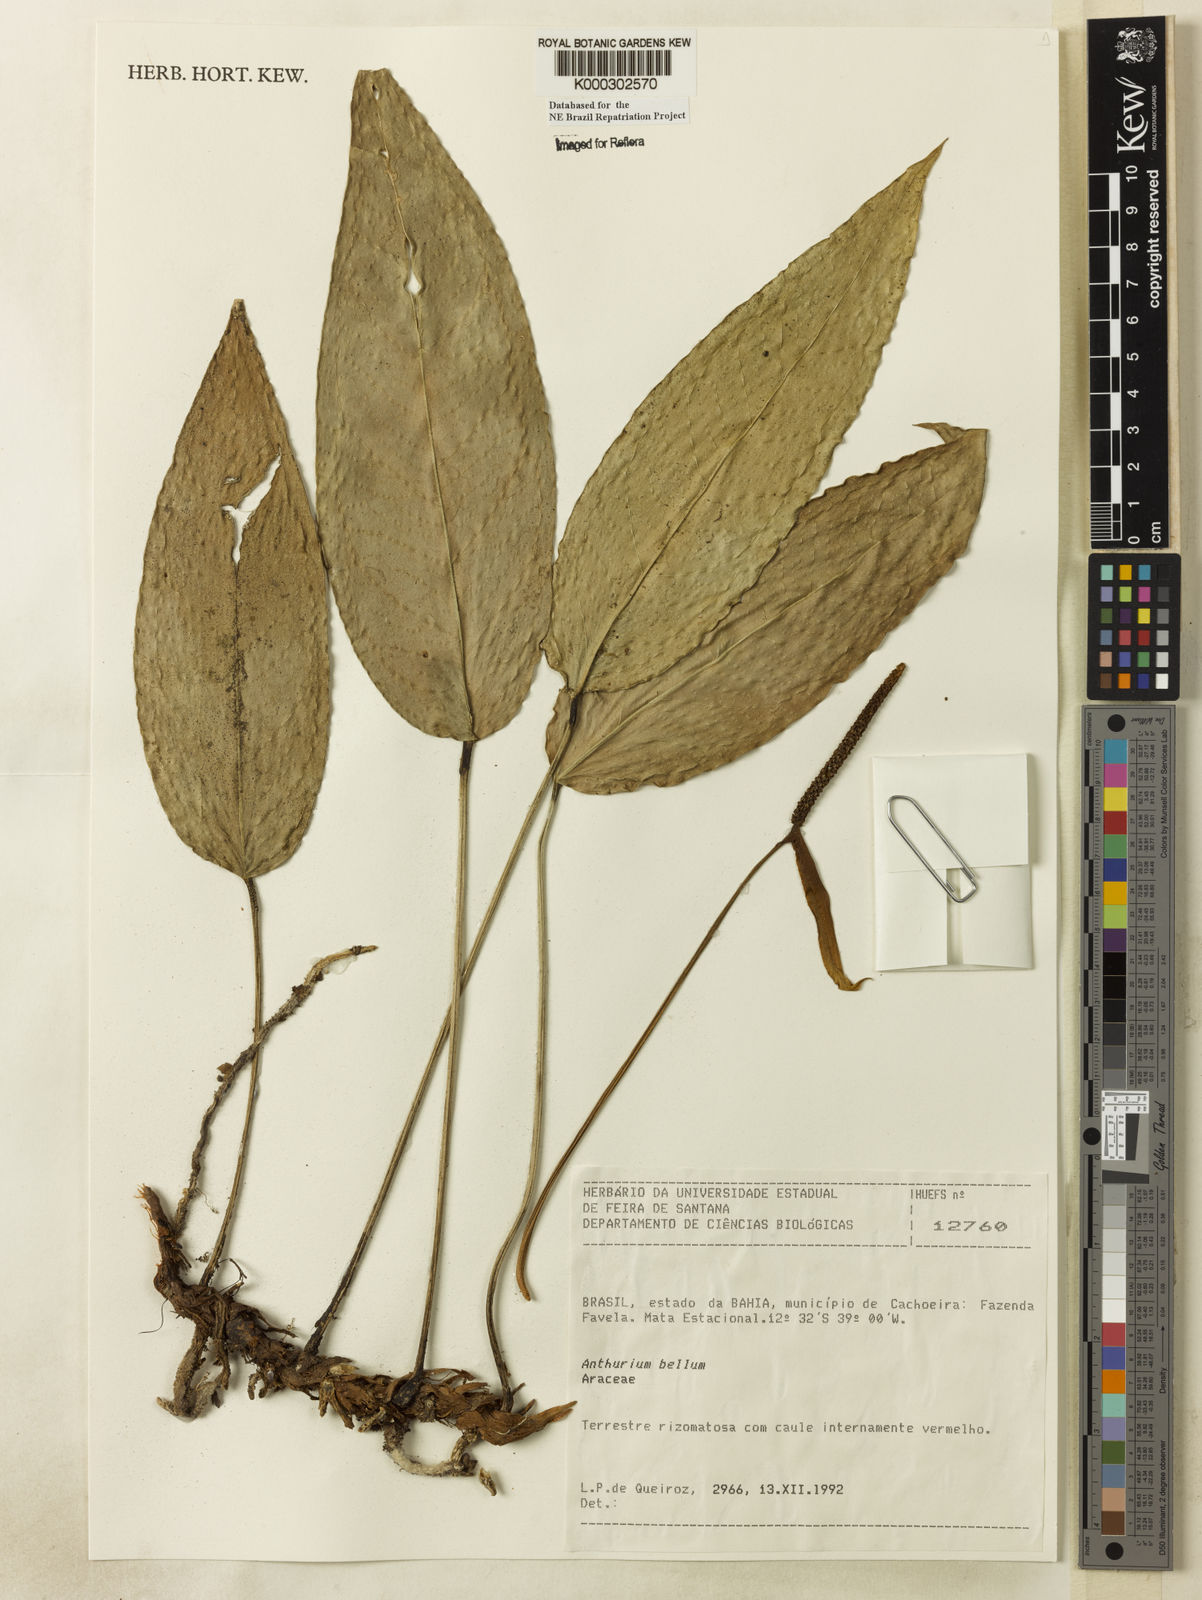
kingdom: Plantae
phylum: Tracheophyta
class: Liliopsida
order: Alismatales
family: Araceae
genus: Anthurium
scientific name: Anthurium bellum
